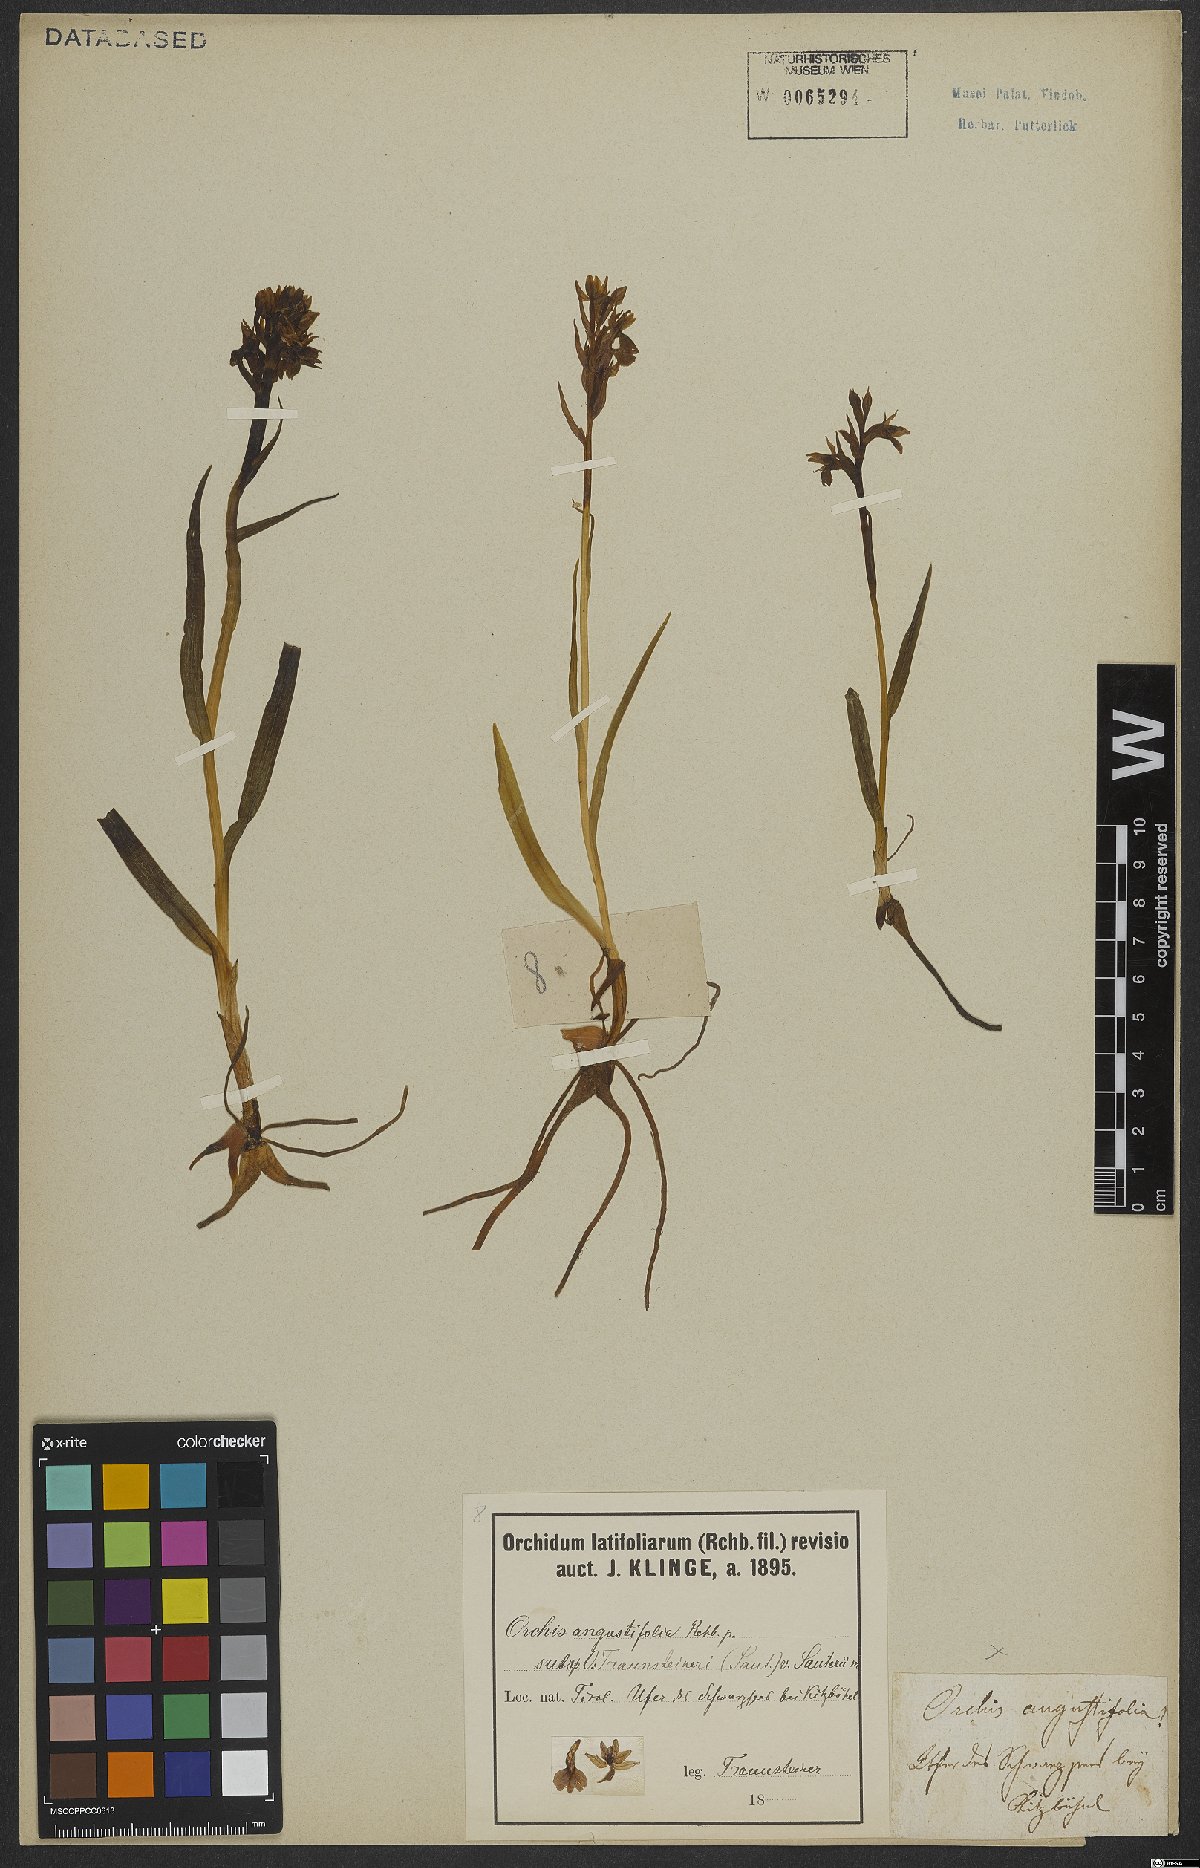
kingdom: Plantae
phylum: Tracheophyta
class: Liliopsida
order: Asparagales
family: Orchidaceae
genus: Dactylorhiza
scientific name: Dactylorhiza incarnata
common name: Early marsh-orchid
